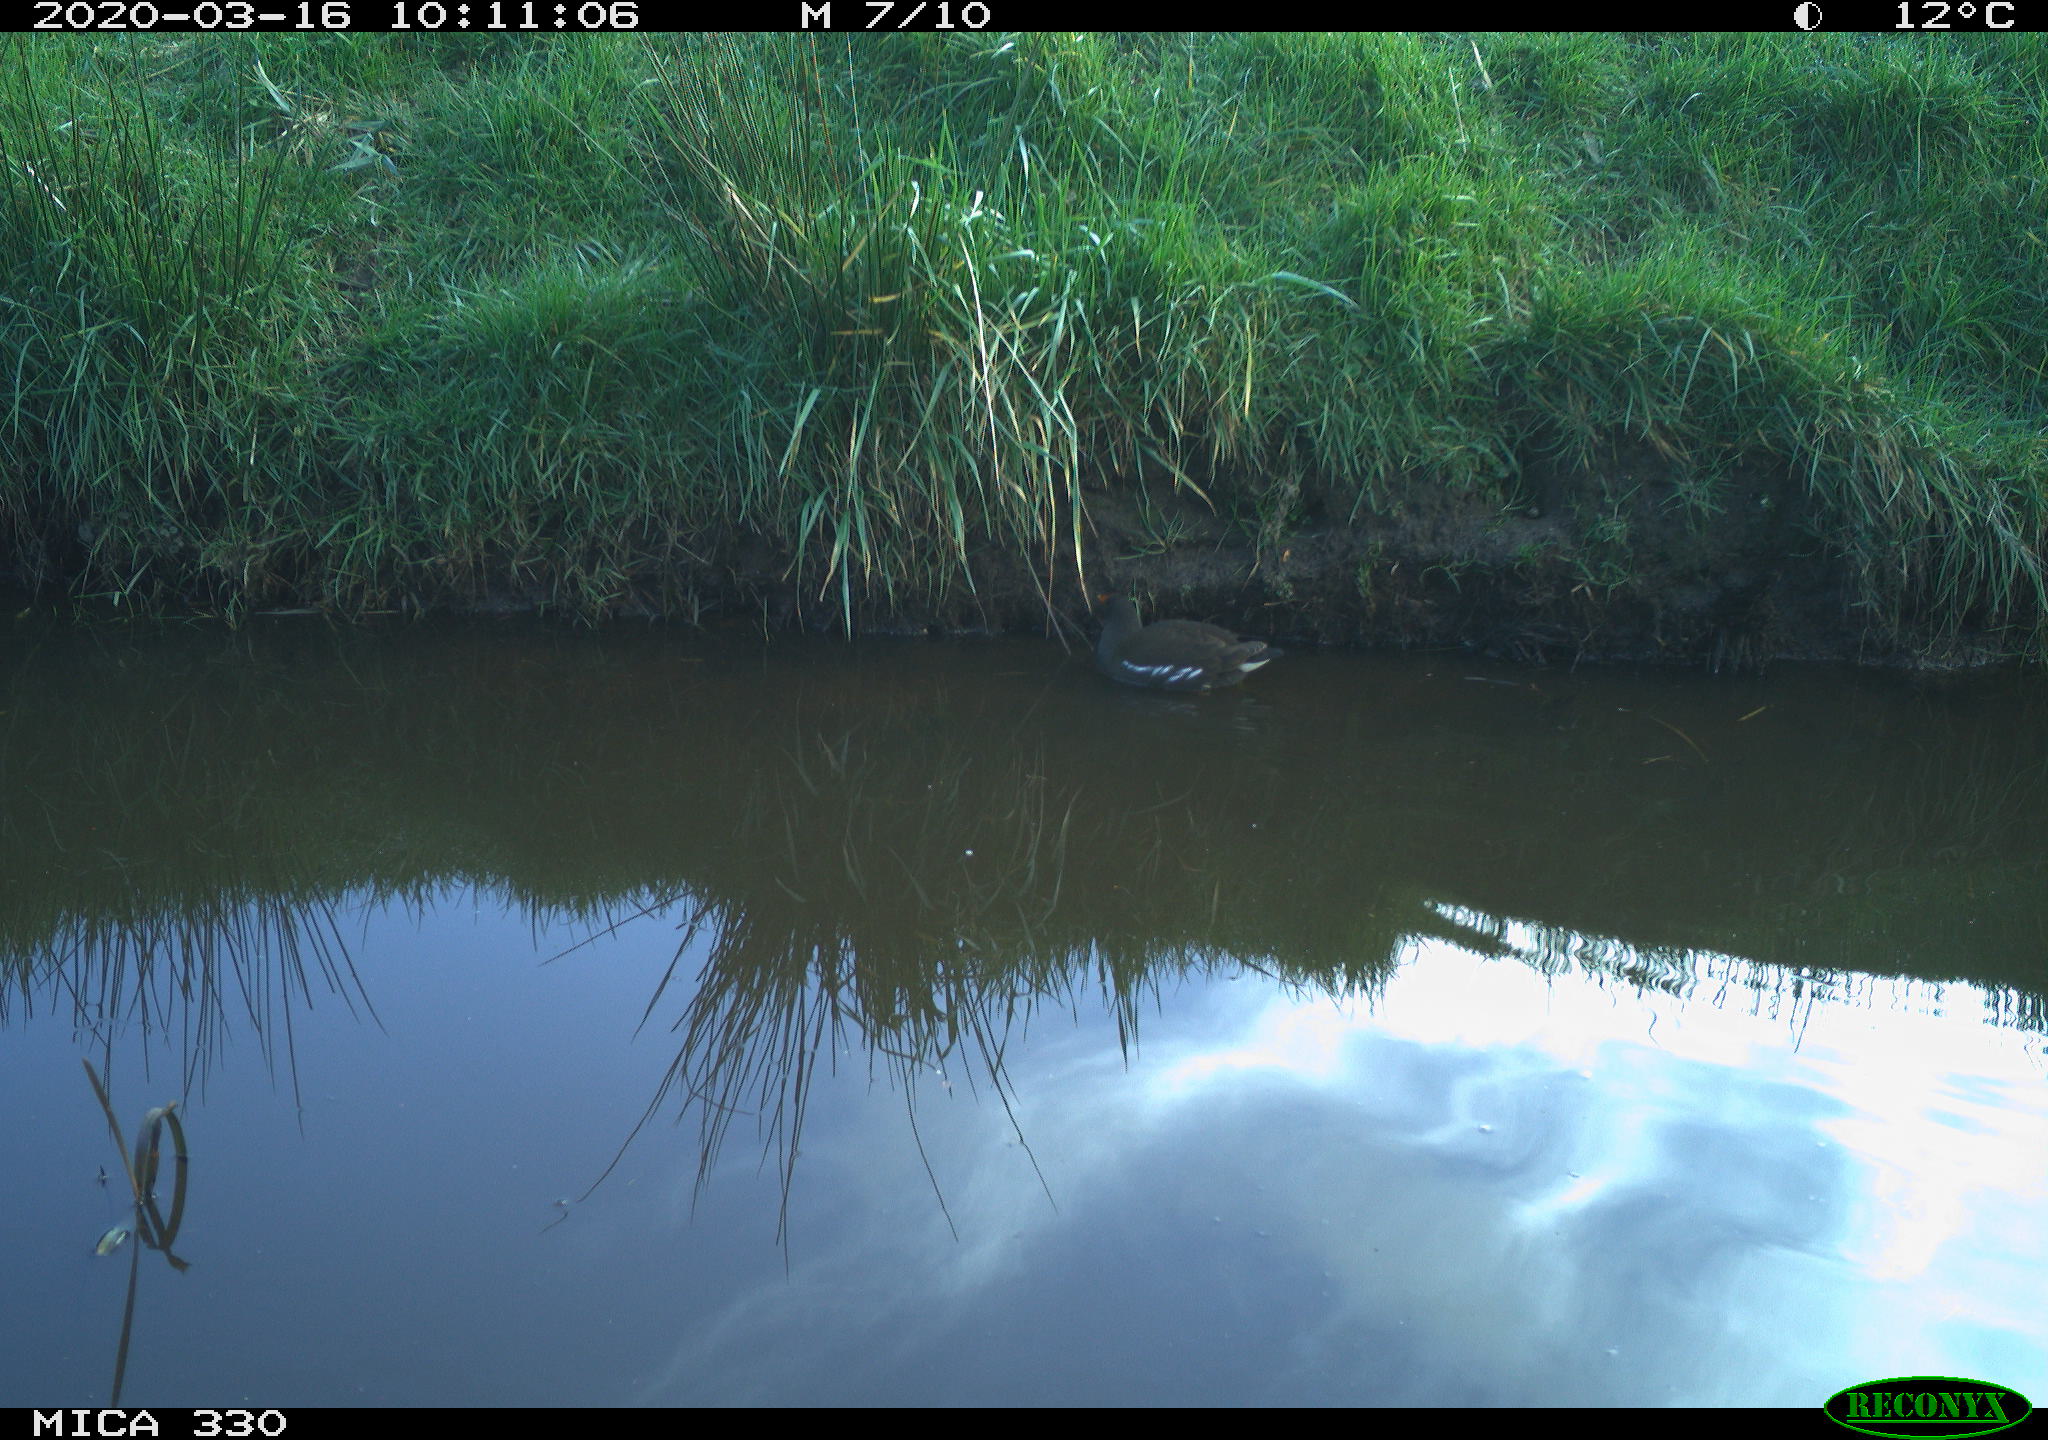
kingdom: Animalia
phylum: Chordata
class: Aves
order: Gruiformes
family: Rallidae
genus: Gallinula
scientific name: Gallinula chloropus
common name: Common moorhen
